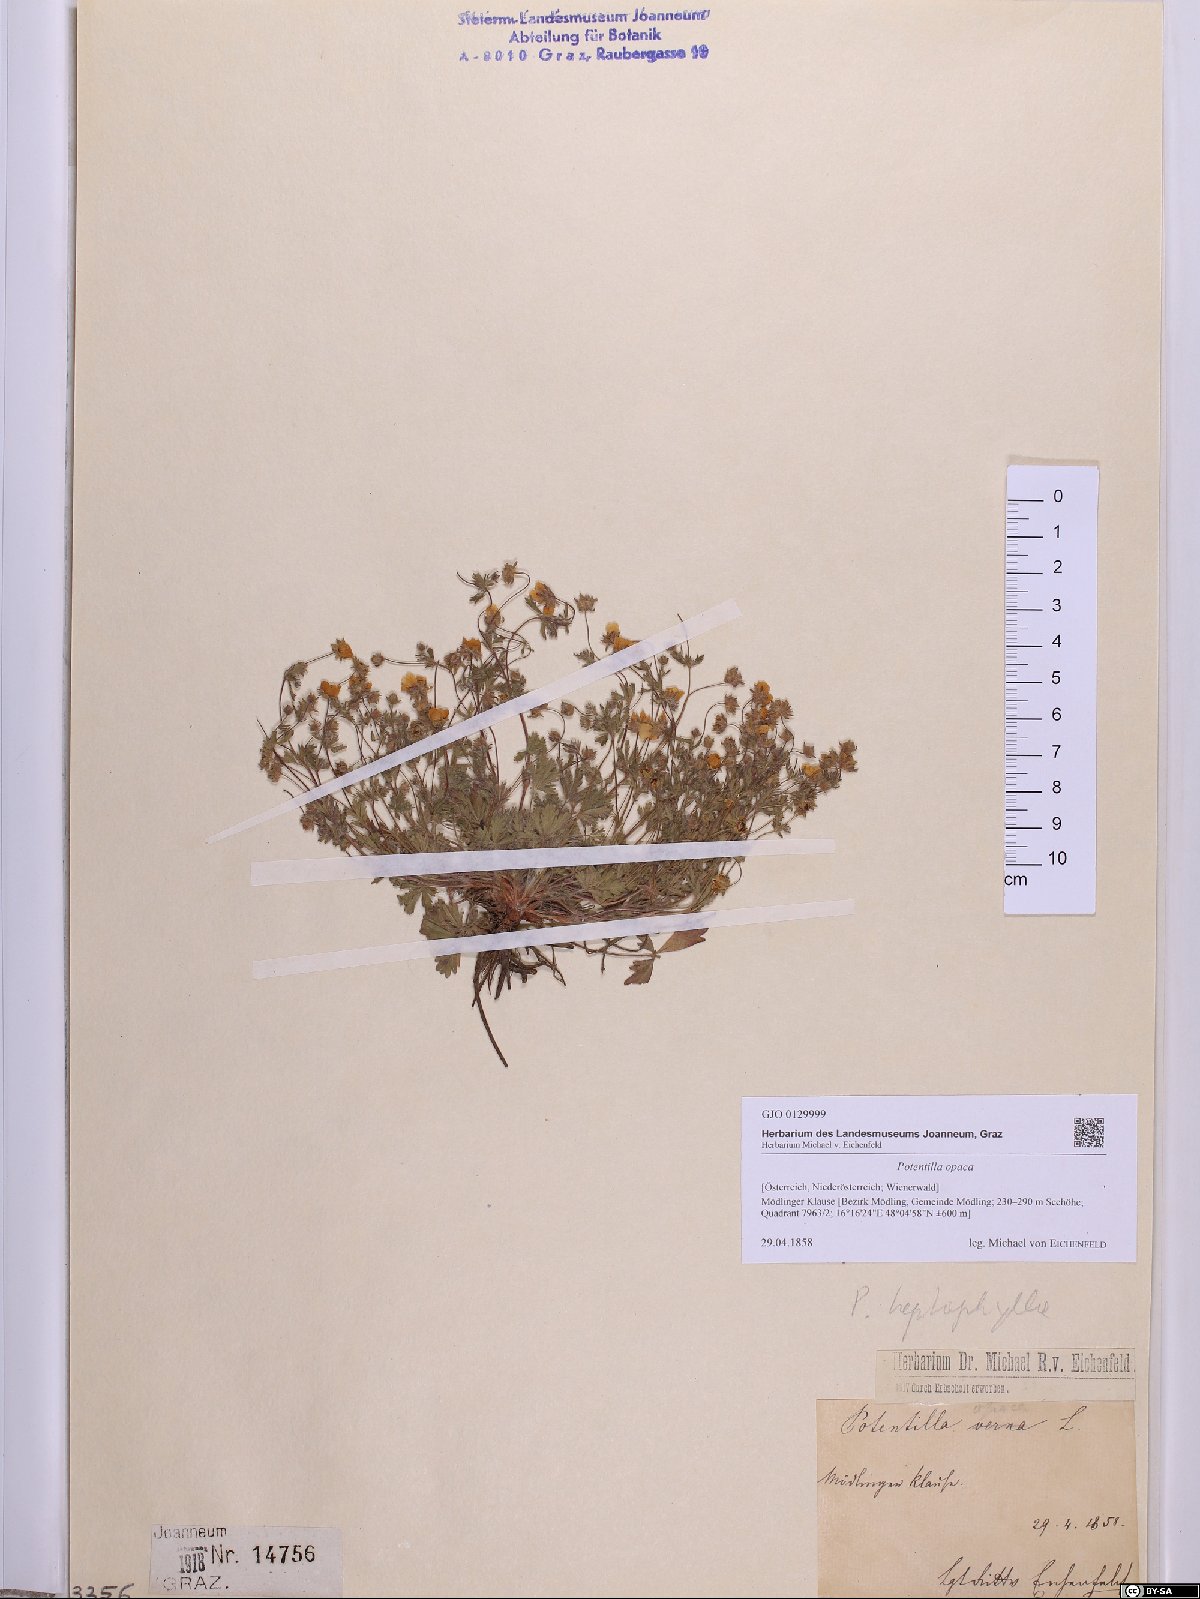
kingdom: Plantae
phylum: Tracheophyta
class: Magnoliopsida
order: Rosales
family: Rosaceae
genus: Potentilla
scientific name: Potentilla
